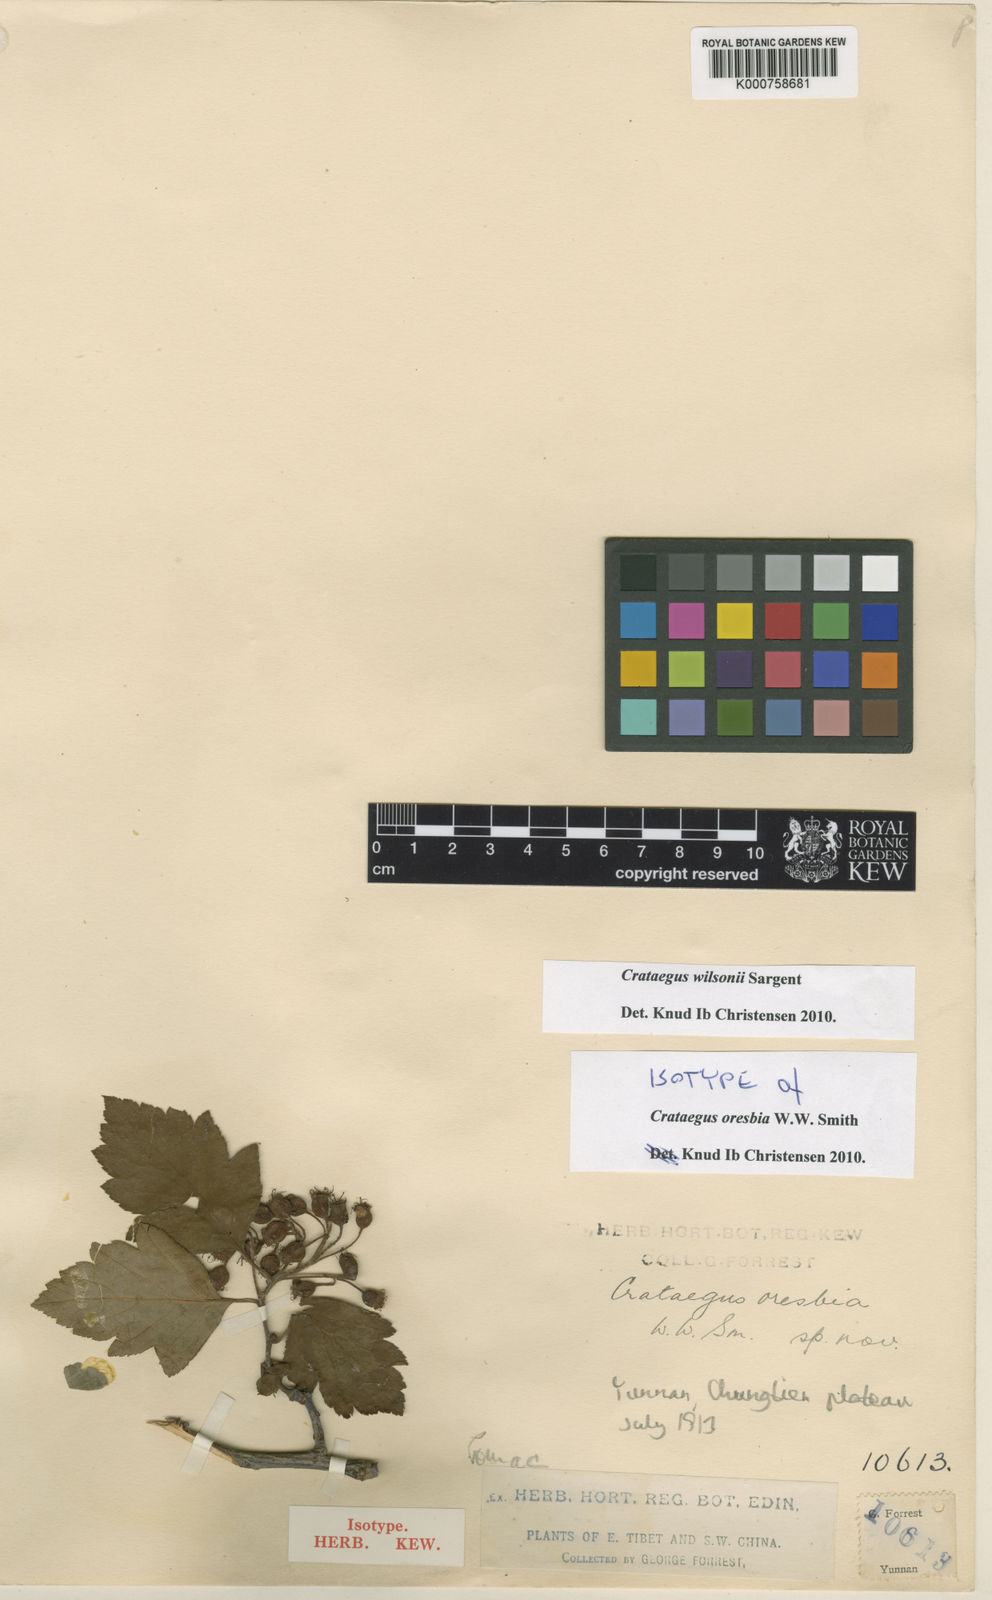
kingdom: Plantae
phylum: Tracheophyta
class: Magnoliopsida
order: Rosales
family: Rosaceae
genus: Crataegus
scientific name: Crataegus wilsonii
